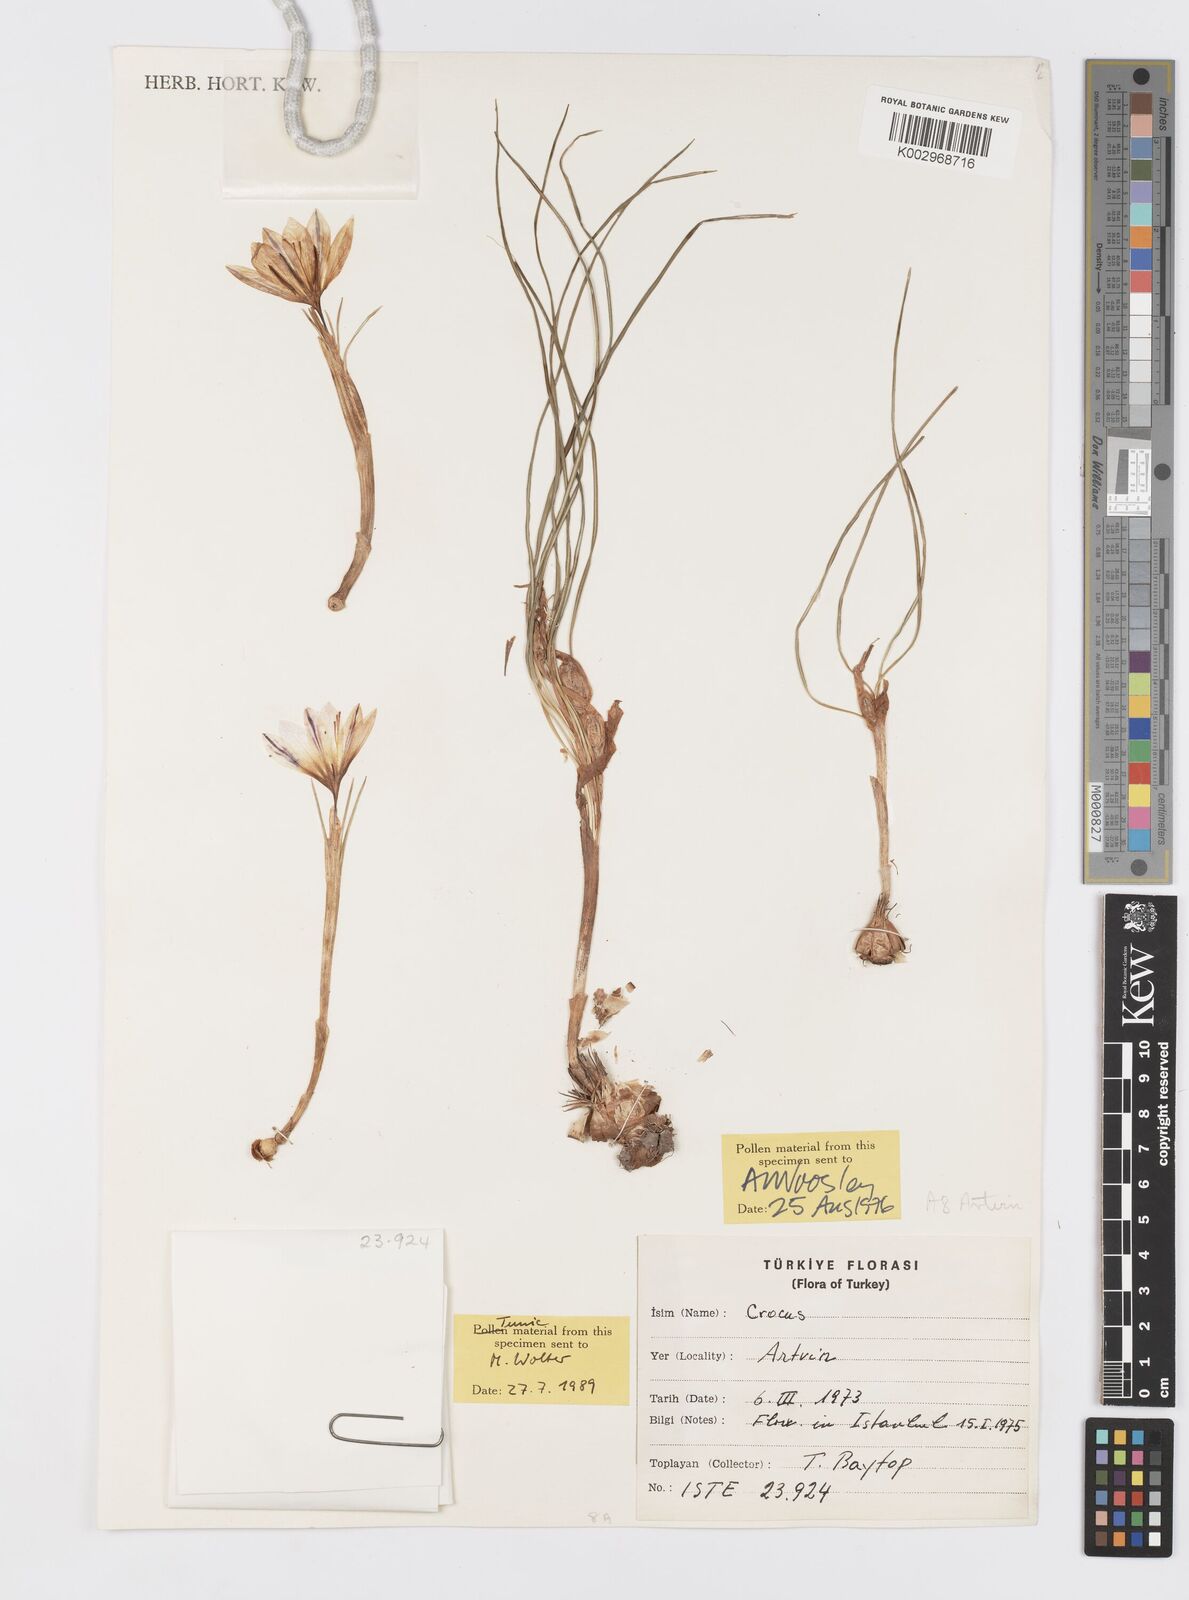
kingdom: Plantae
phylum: Tracheophyta
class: Liliopsida
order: Asparagales
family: Iridaceae
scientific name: Iridaceae
